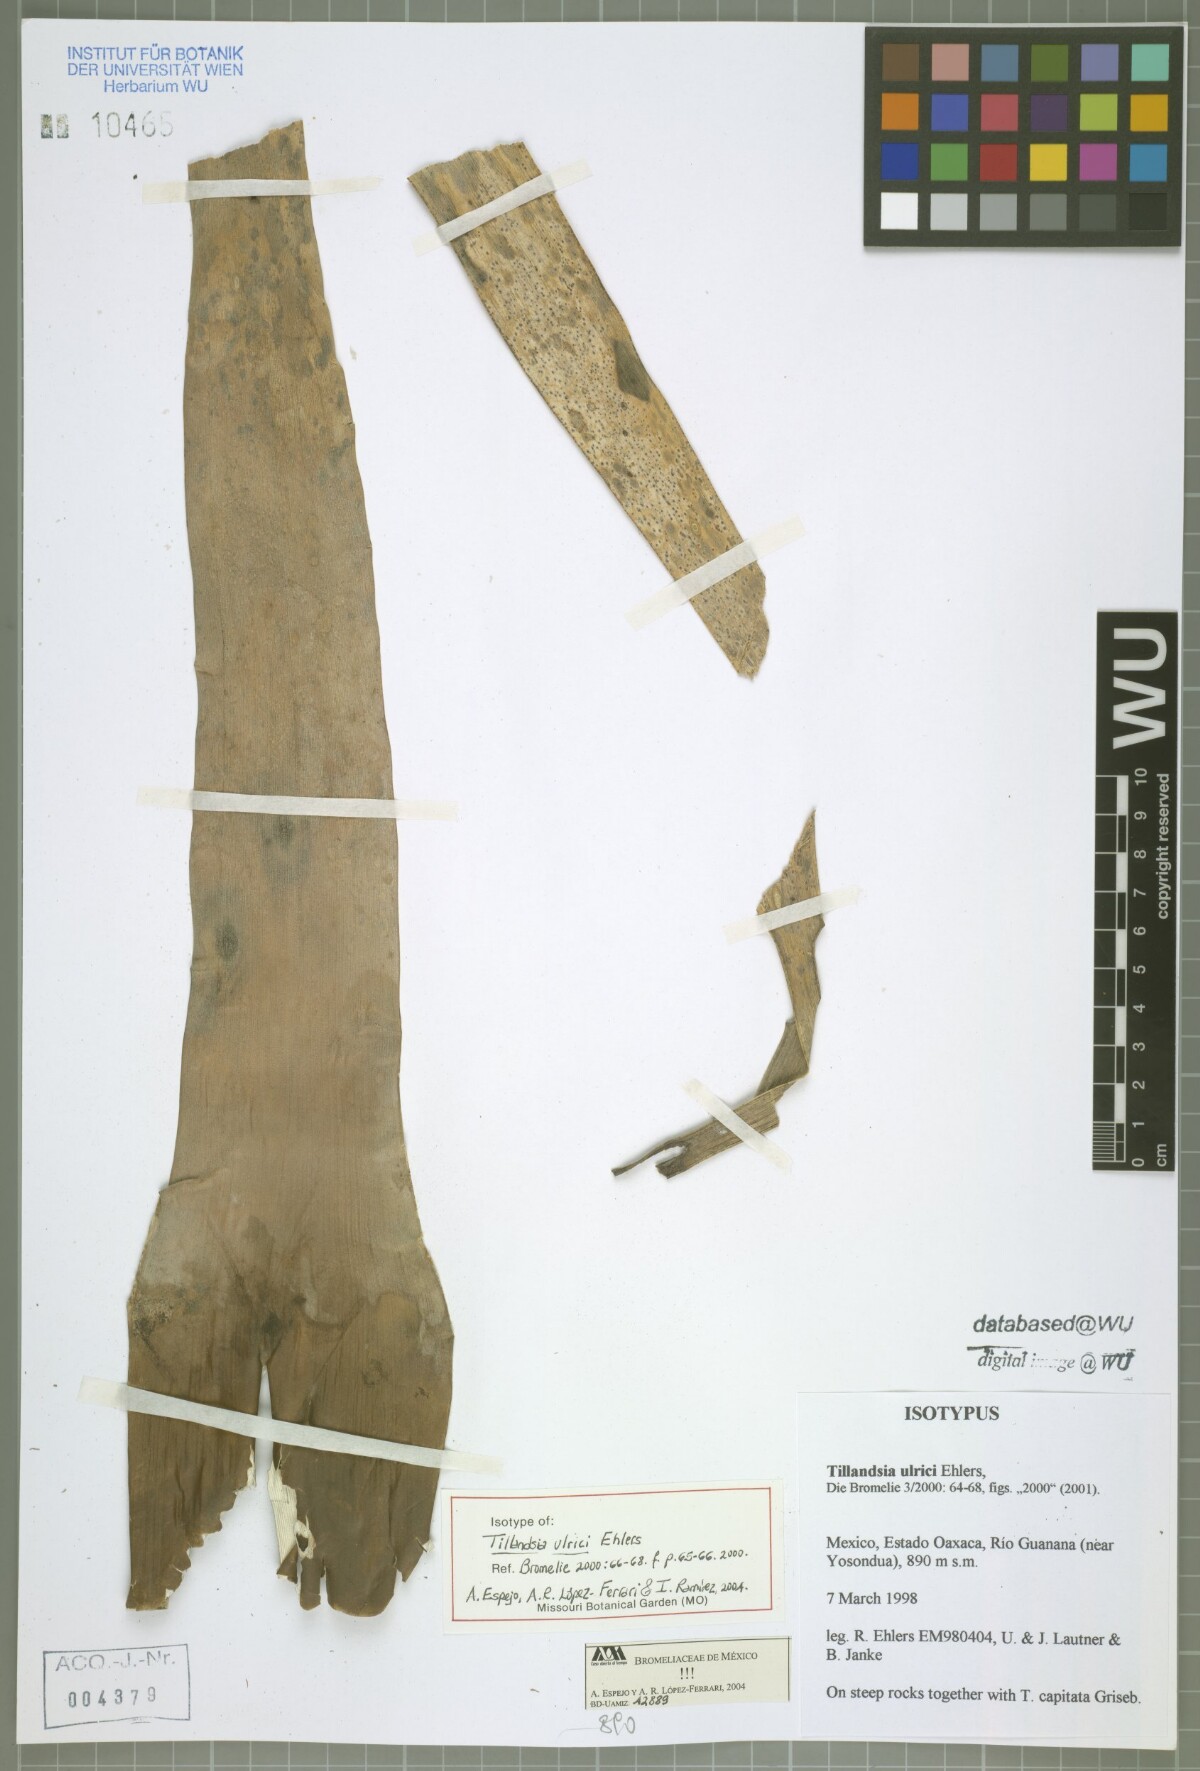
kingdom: Plantae
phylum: Tracheophyta
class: Liliopsida
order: Poales
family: Bromeliaceae
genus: Tillandsia
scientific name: Tillandsia ulrici
